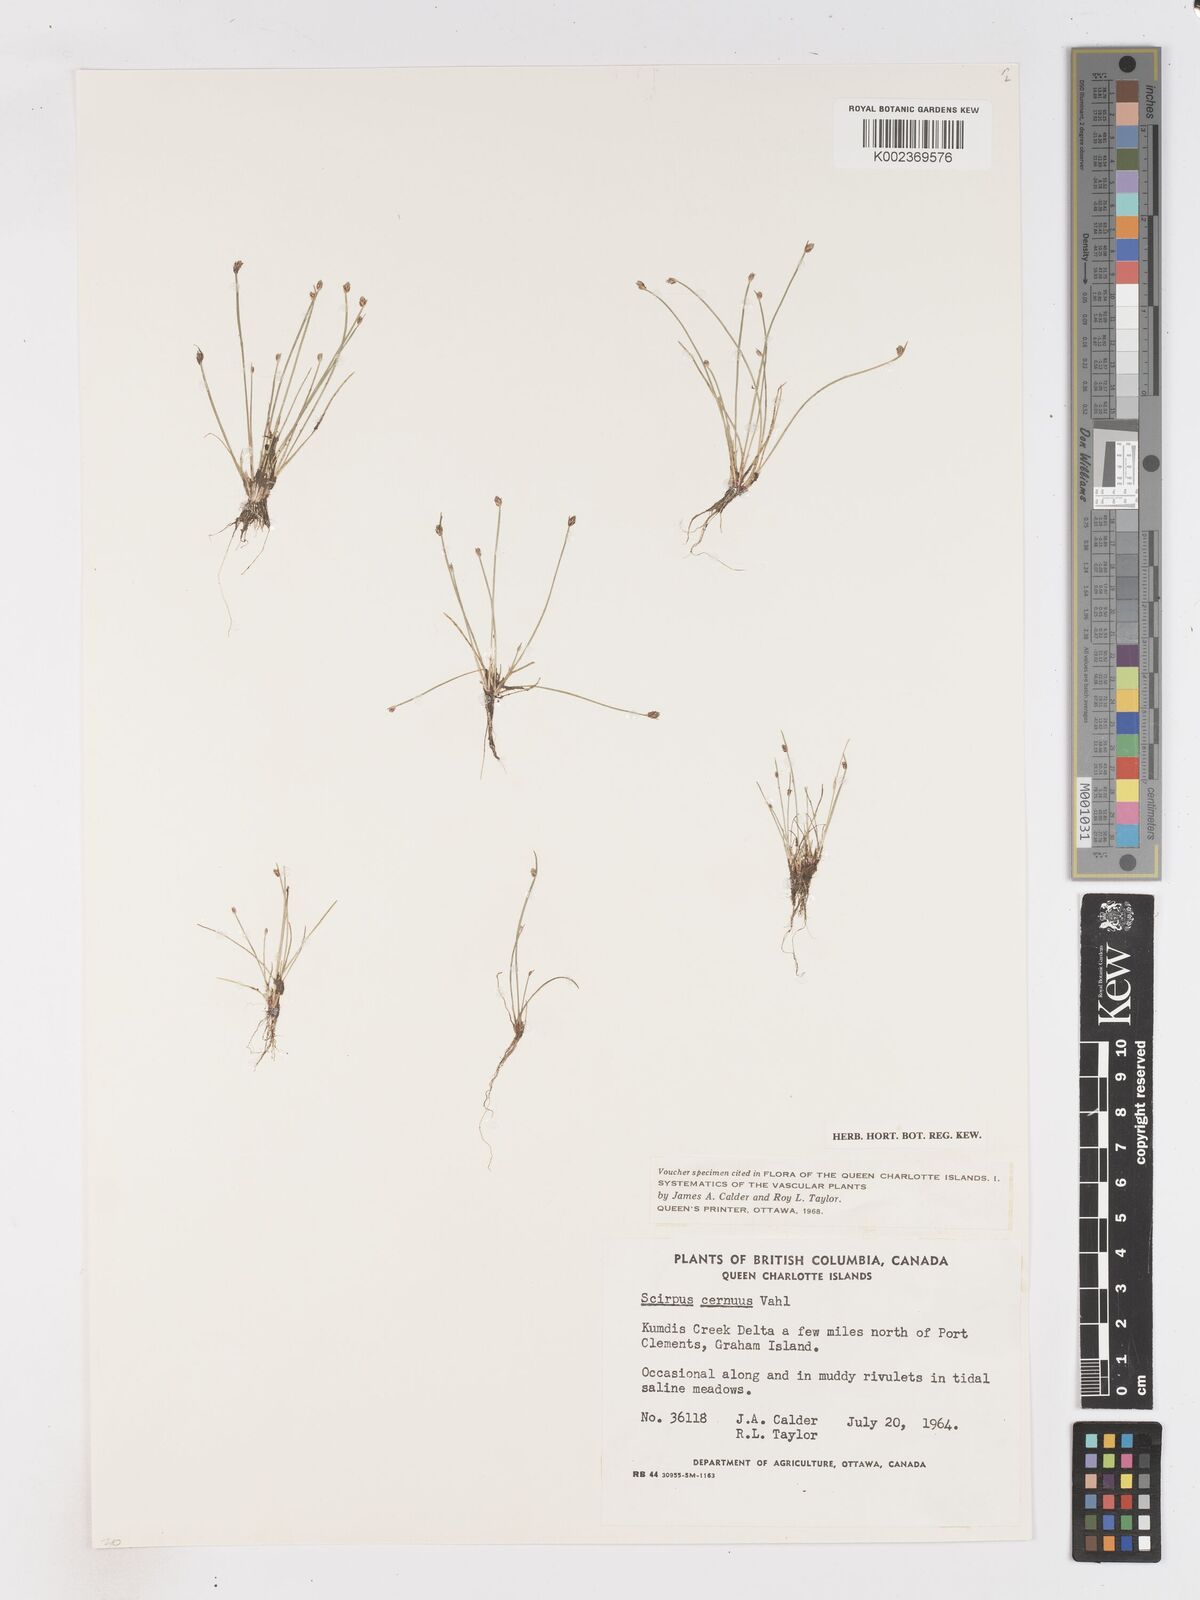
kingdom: Plantae
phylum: Tracheophyta
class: Liliopsida
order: Poales
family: Cyperaceae
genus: Isolepis
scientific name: Isolepis cernua
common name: Slender club-rush
